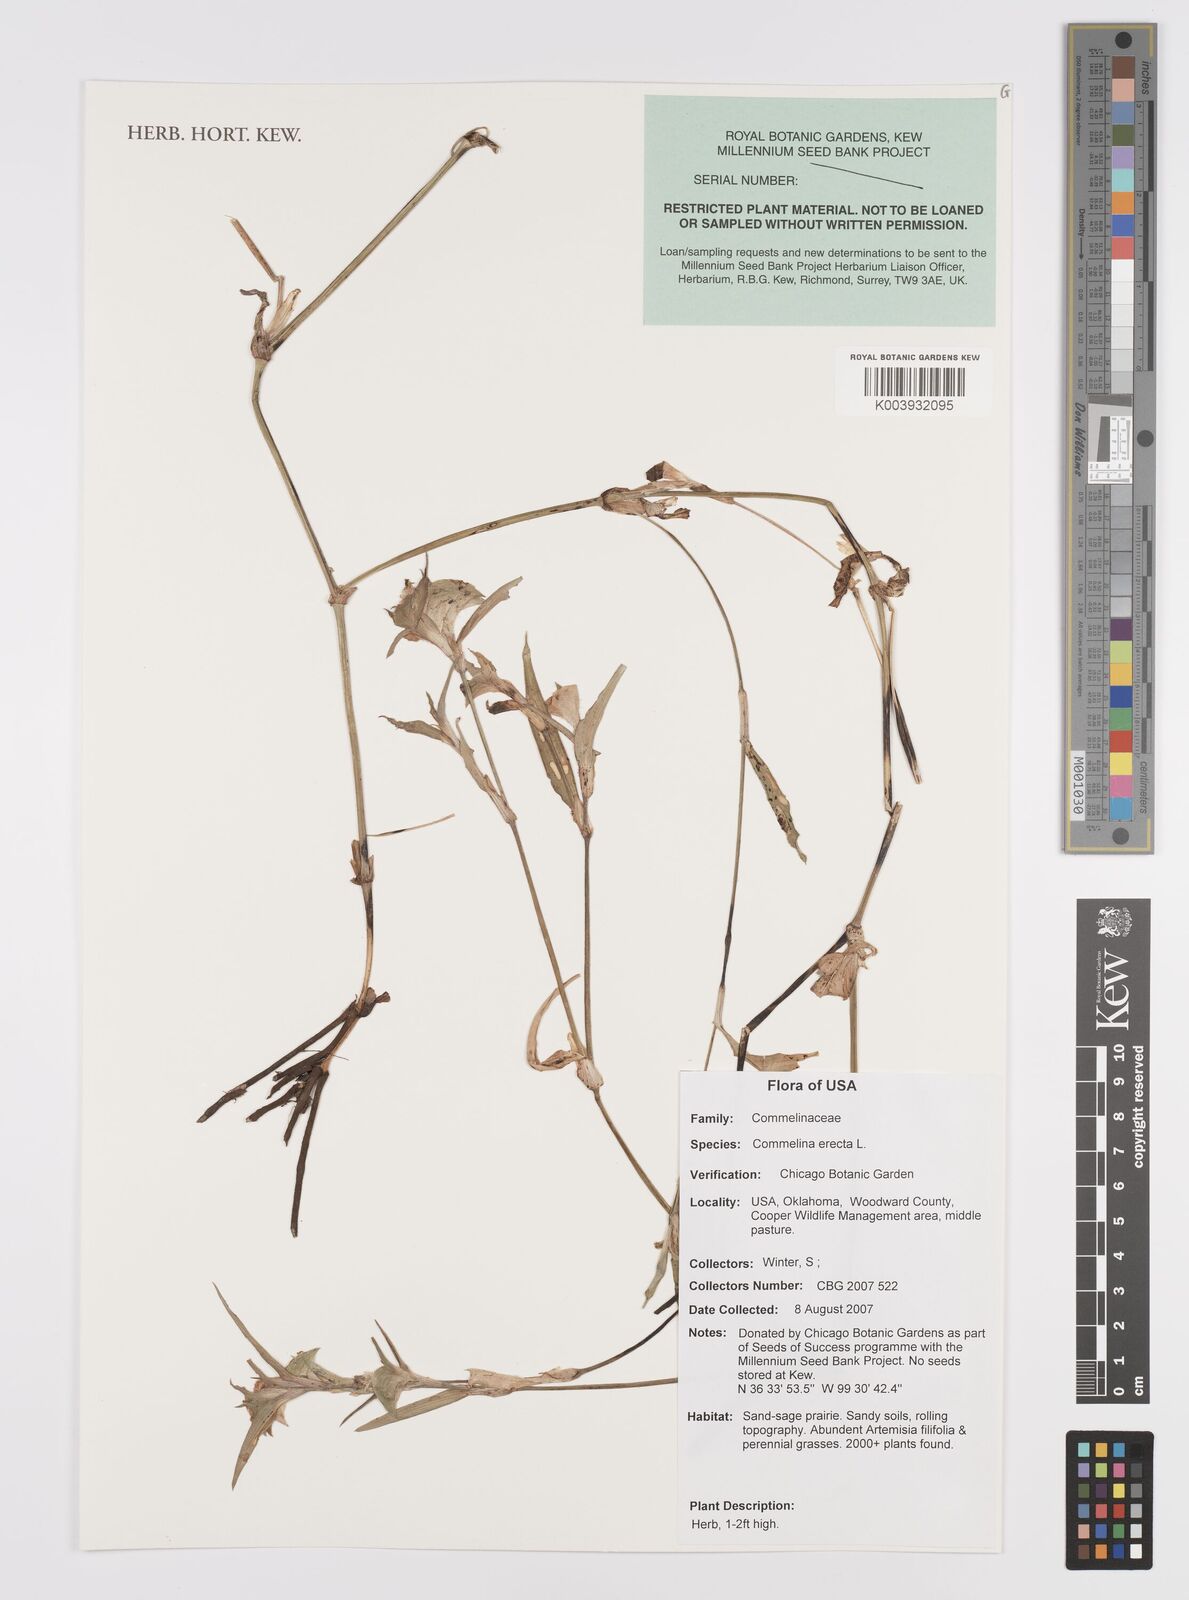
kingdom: Plantae
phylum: Tracheophyta
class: Liliopsida
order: Commelinales
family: Commelinaceae
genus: Commelina
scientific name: Commelina erecta
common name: Blousel blommetjie
